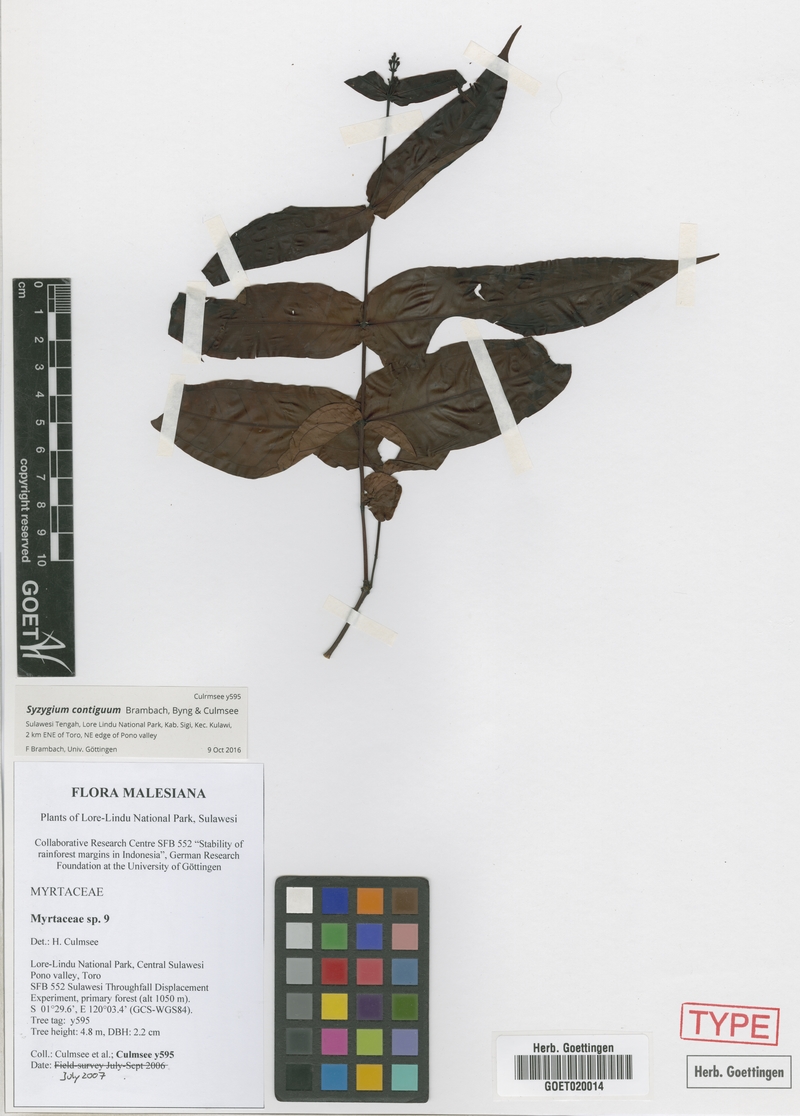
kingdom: Plantae
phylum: Tracheophyta
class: Magnoliopsida
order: Myrtales
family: Myrtaceae
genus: Syzygium
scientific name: Syzygium contiguum
